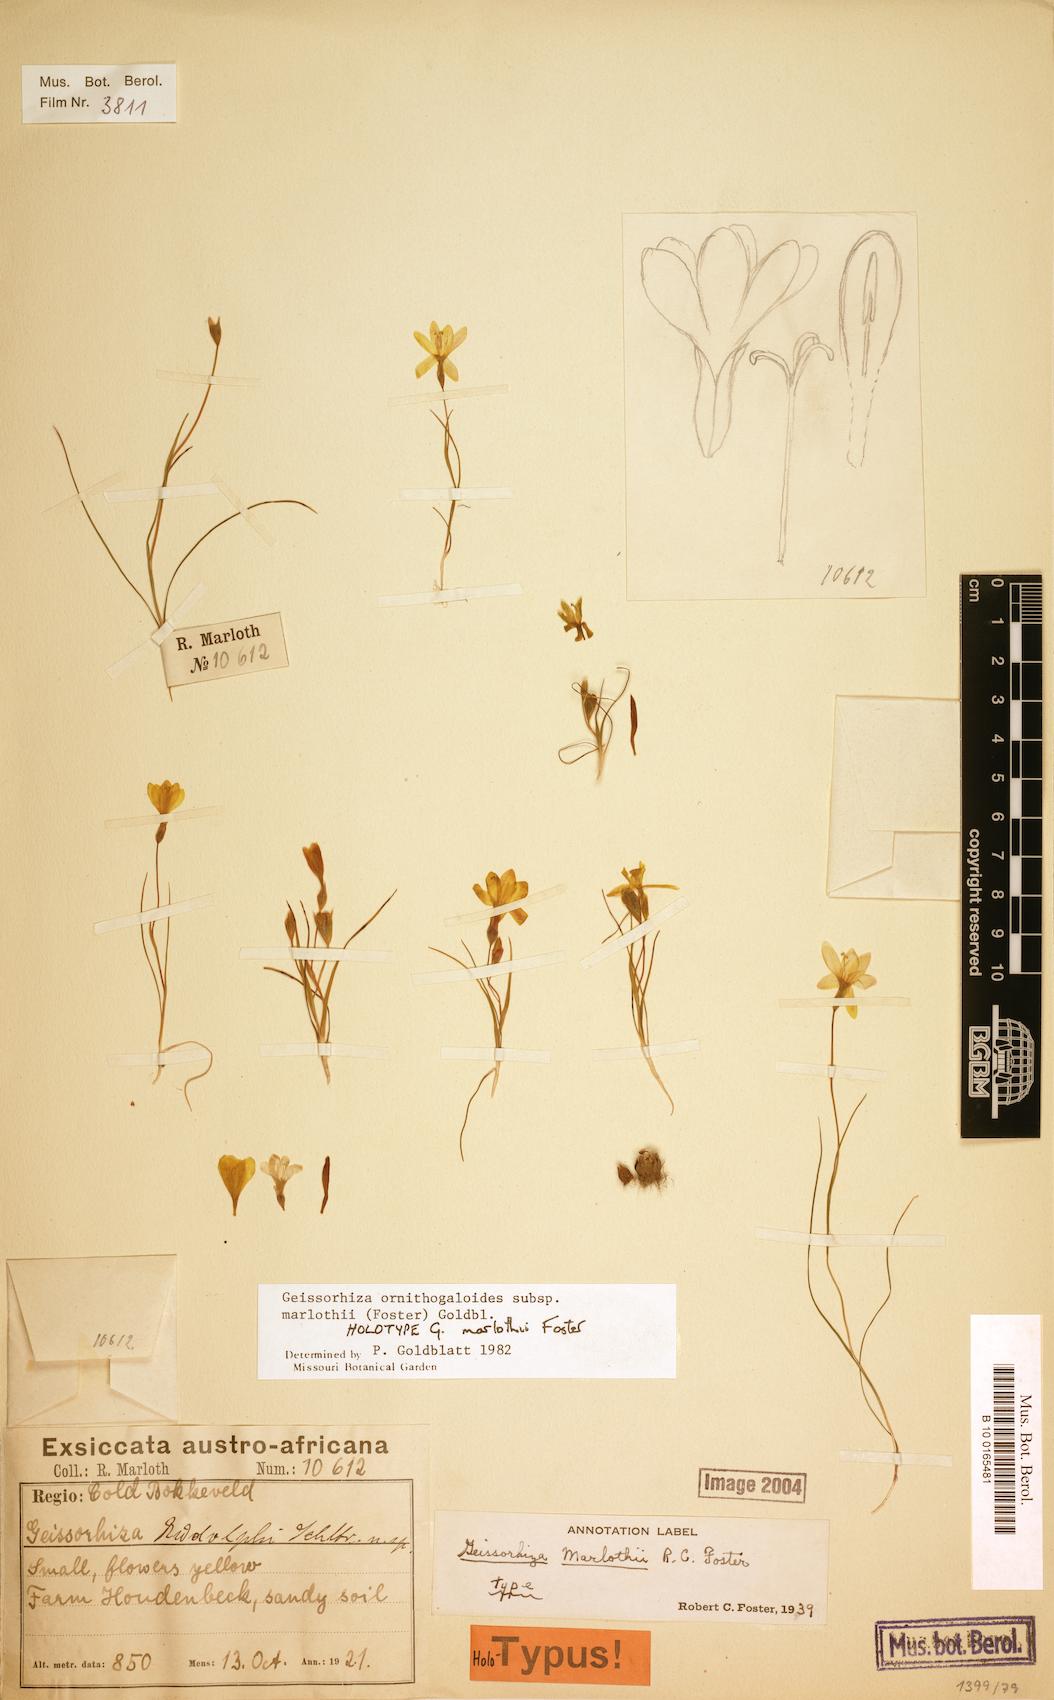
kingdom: Plantae
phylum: Tracheophyta
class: Liliopsida
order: Asparagales
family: Iridaceae
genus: Geissorhiza
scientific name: Geissorhiza ornithogaloides
